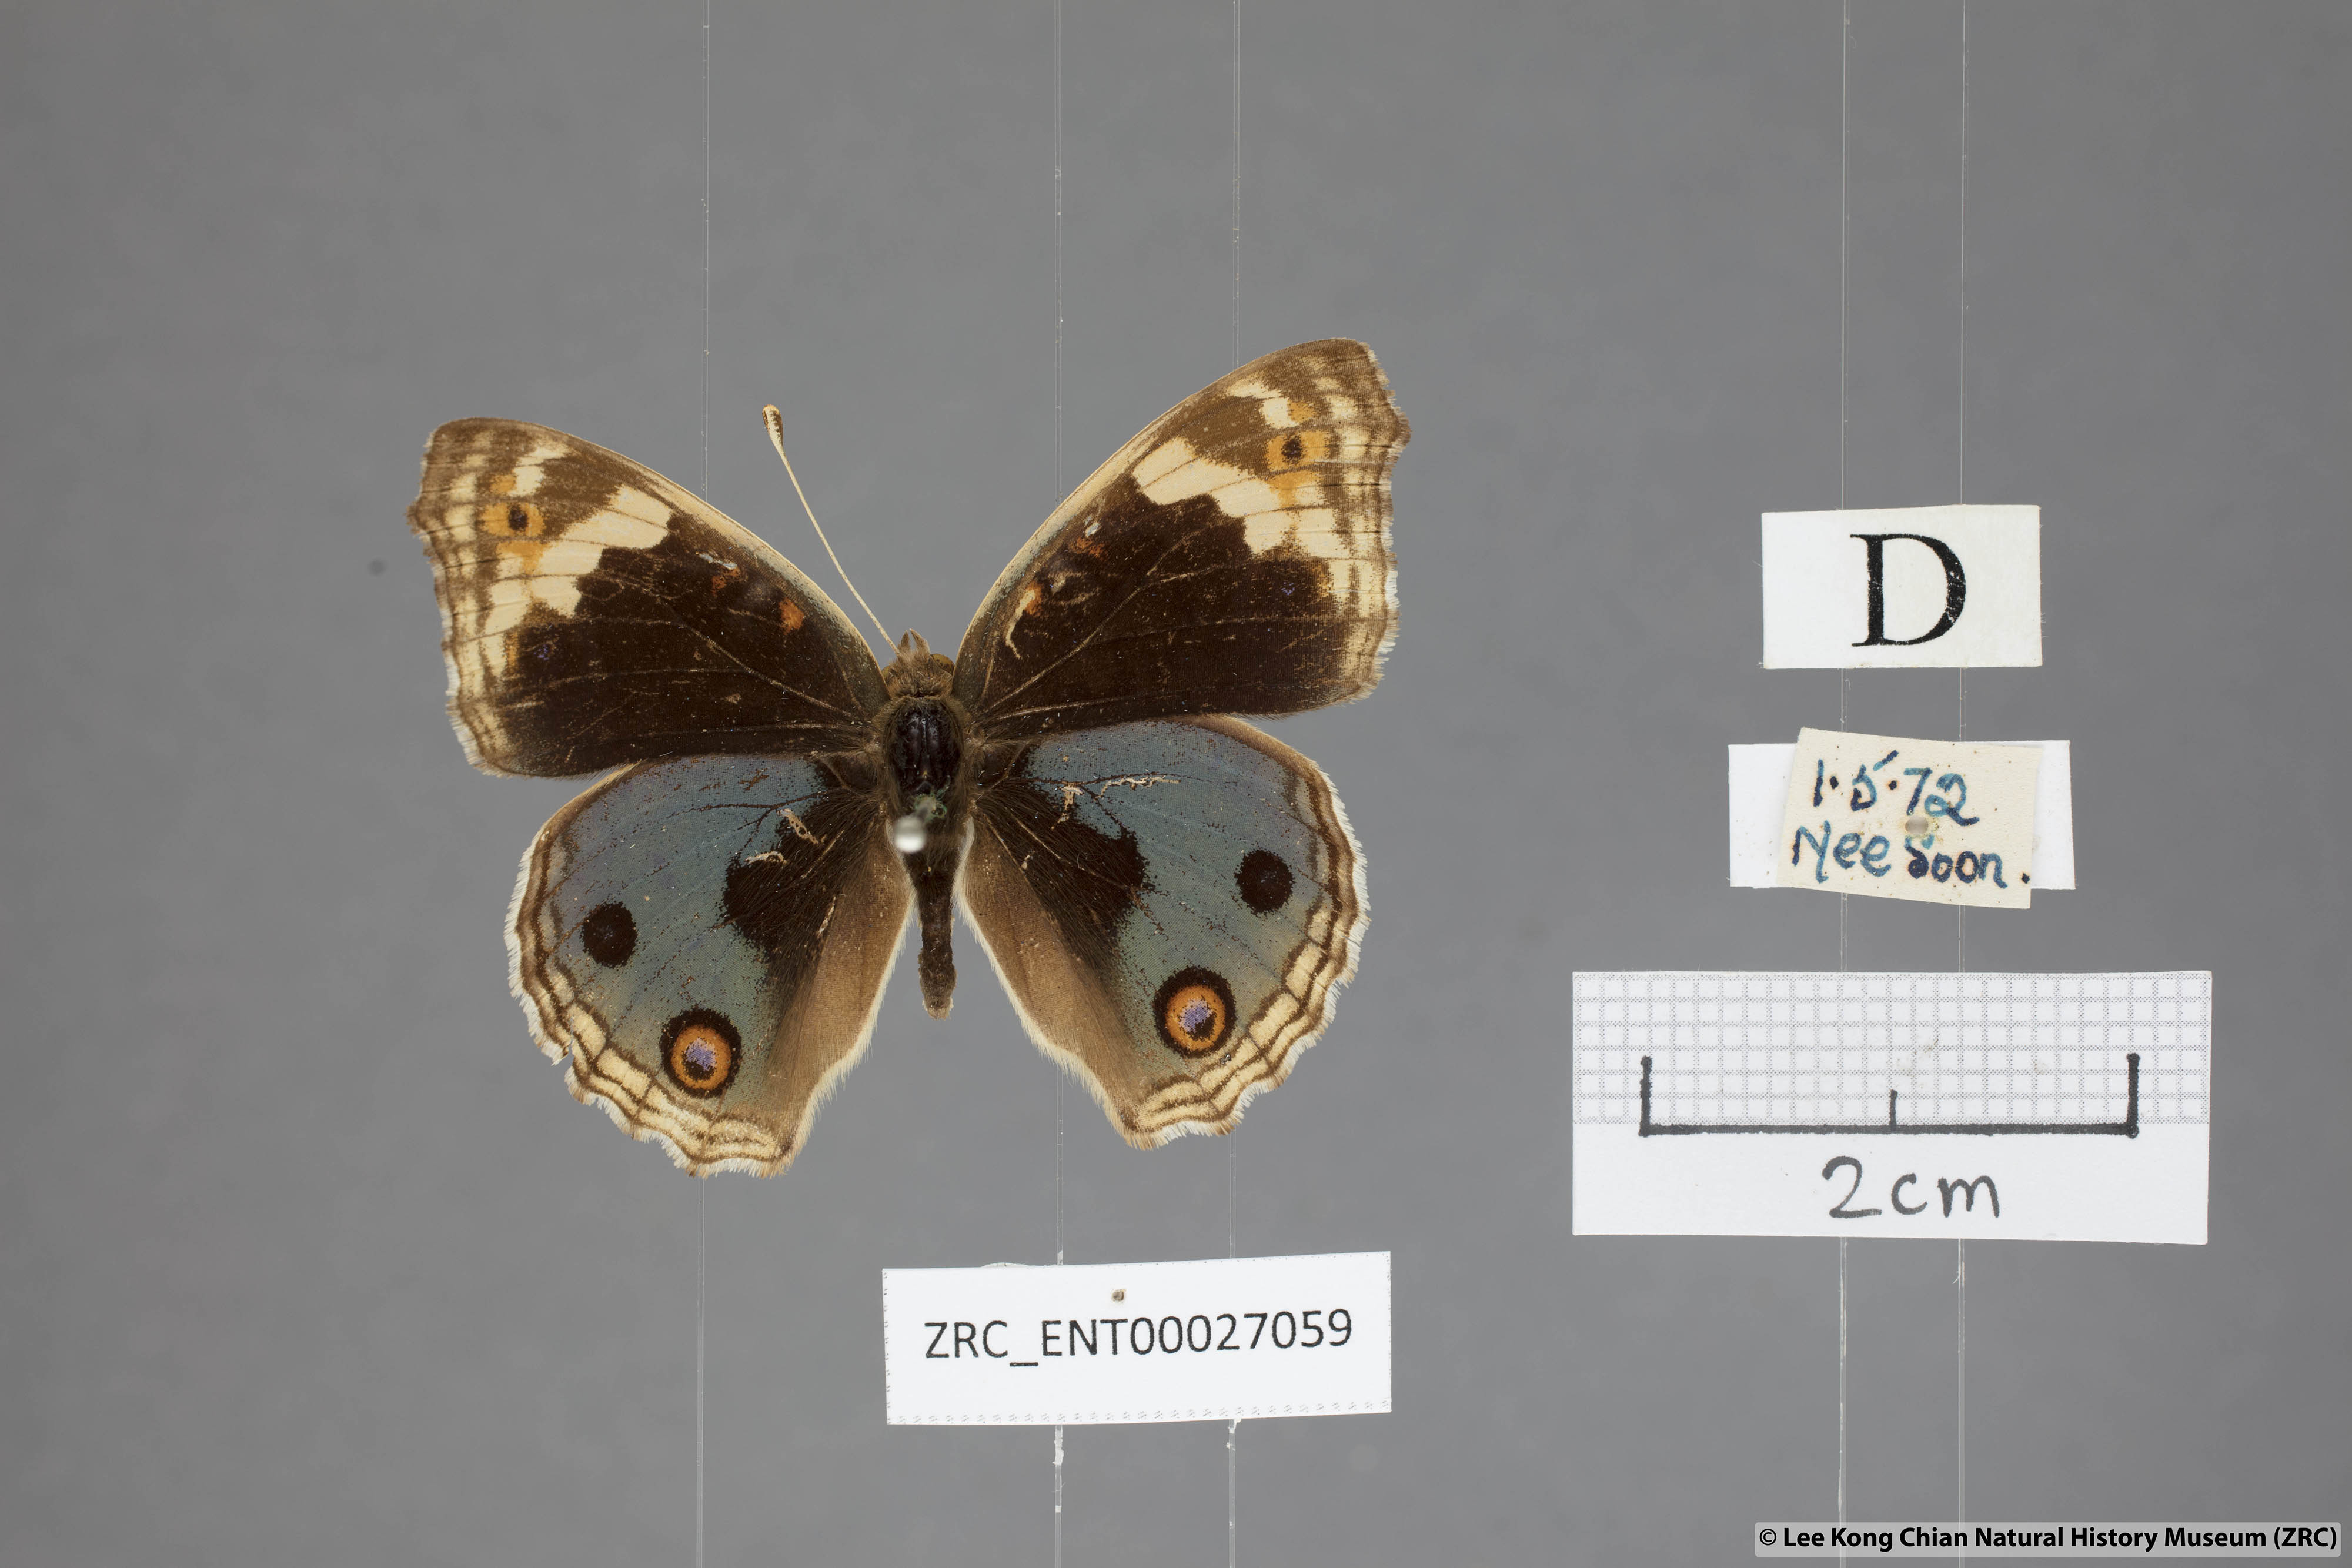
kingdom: Animalia
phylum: Arthropoda
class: Insecta
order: Lepidoptera
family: Nymphalidae
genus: Junonia
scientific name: Junonia orithya
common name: Blue pansy
